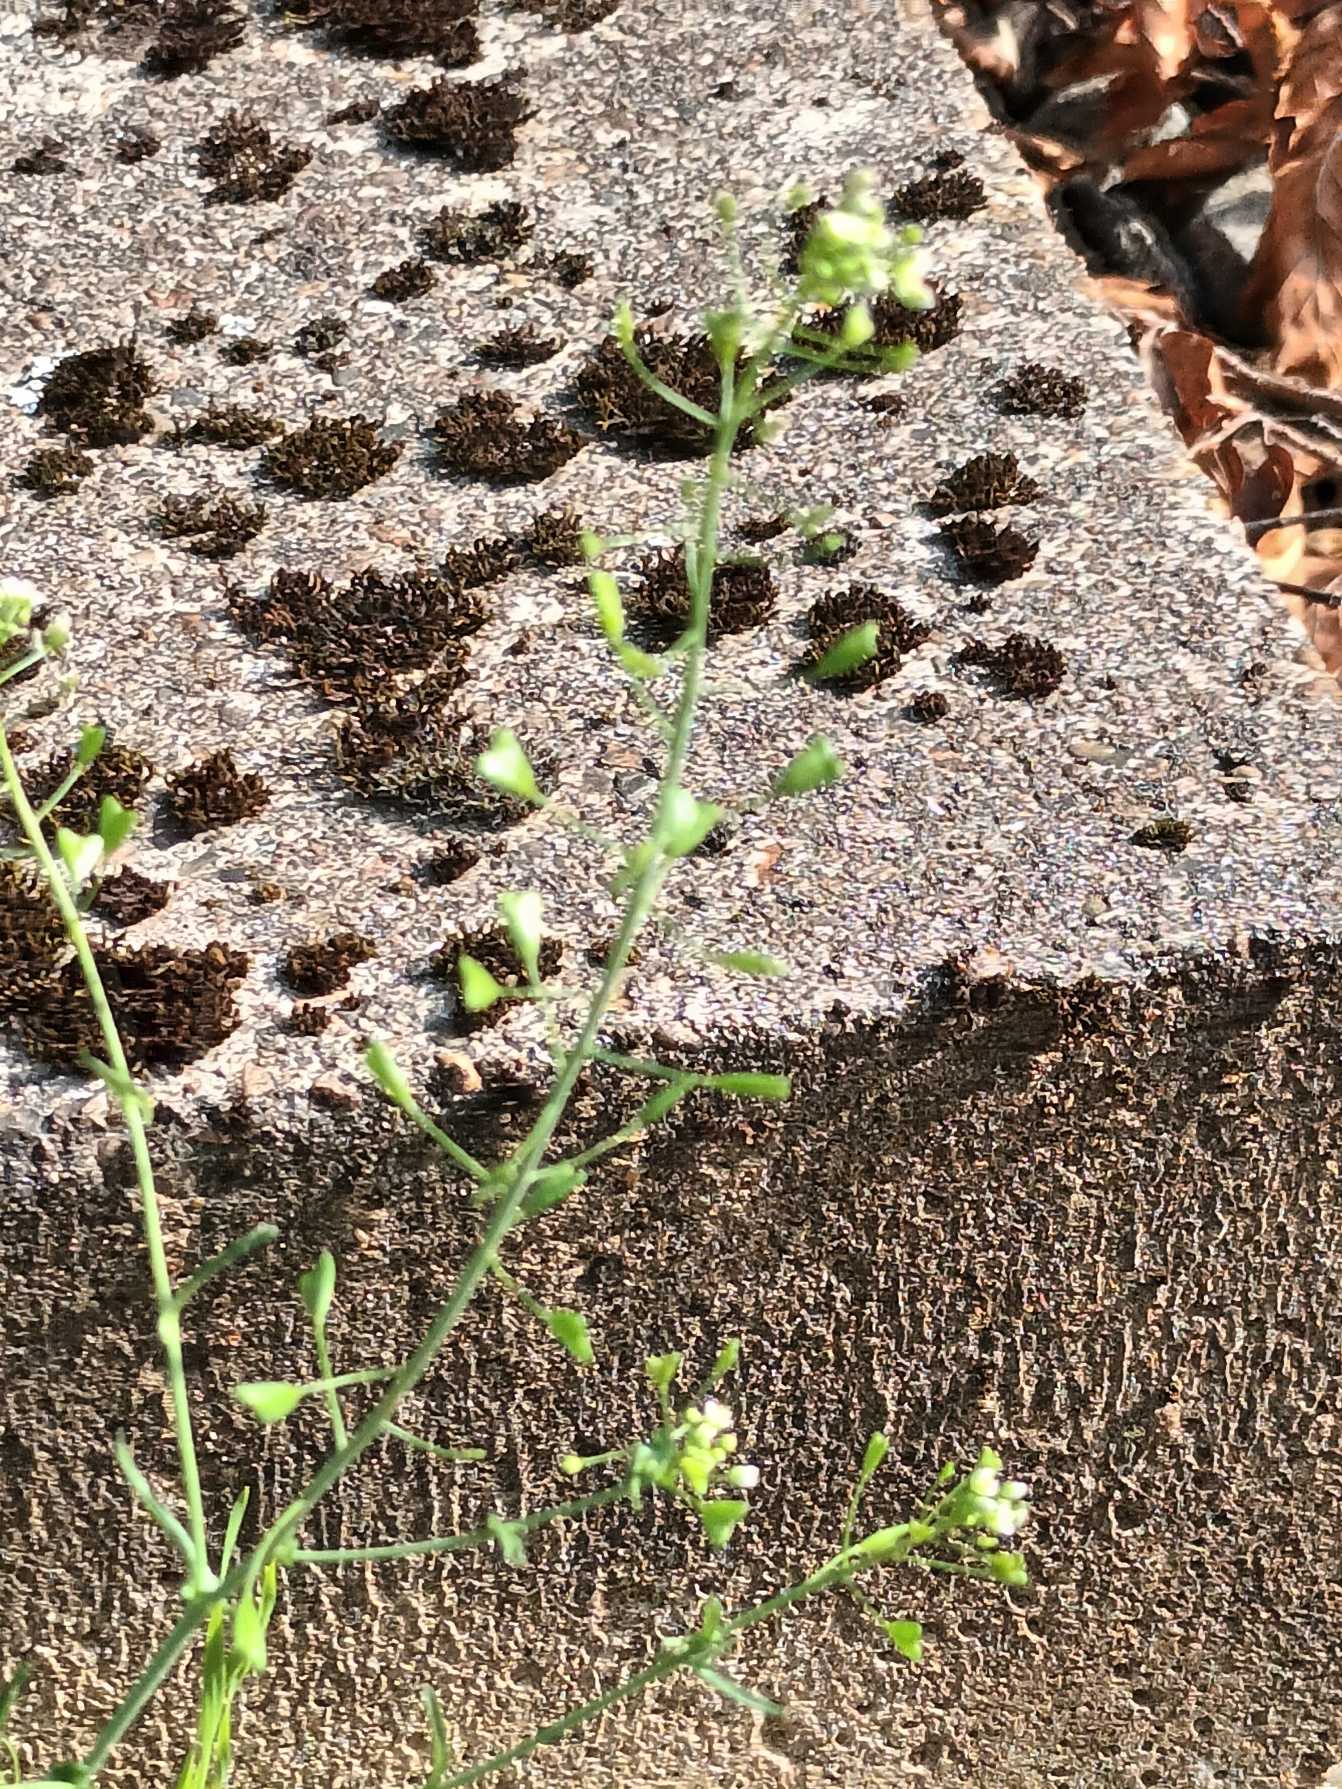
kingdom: Plantae
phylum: Tracheophyta
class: Magnoliopsida
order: Brassicales
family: Brassicaceae
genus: Capsella
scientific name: Capsella bursa-pastoris
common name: Hyrdetaske
